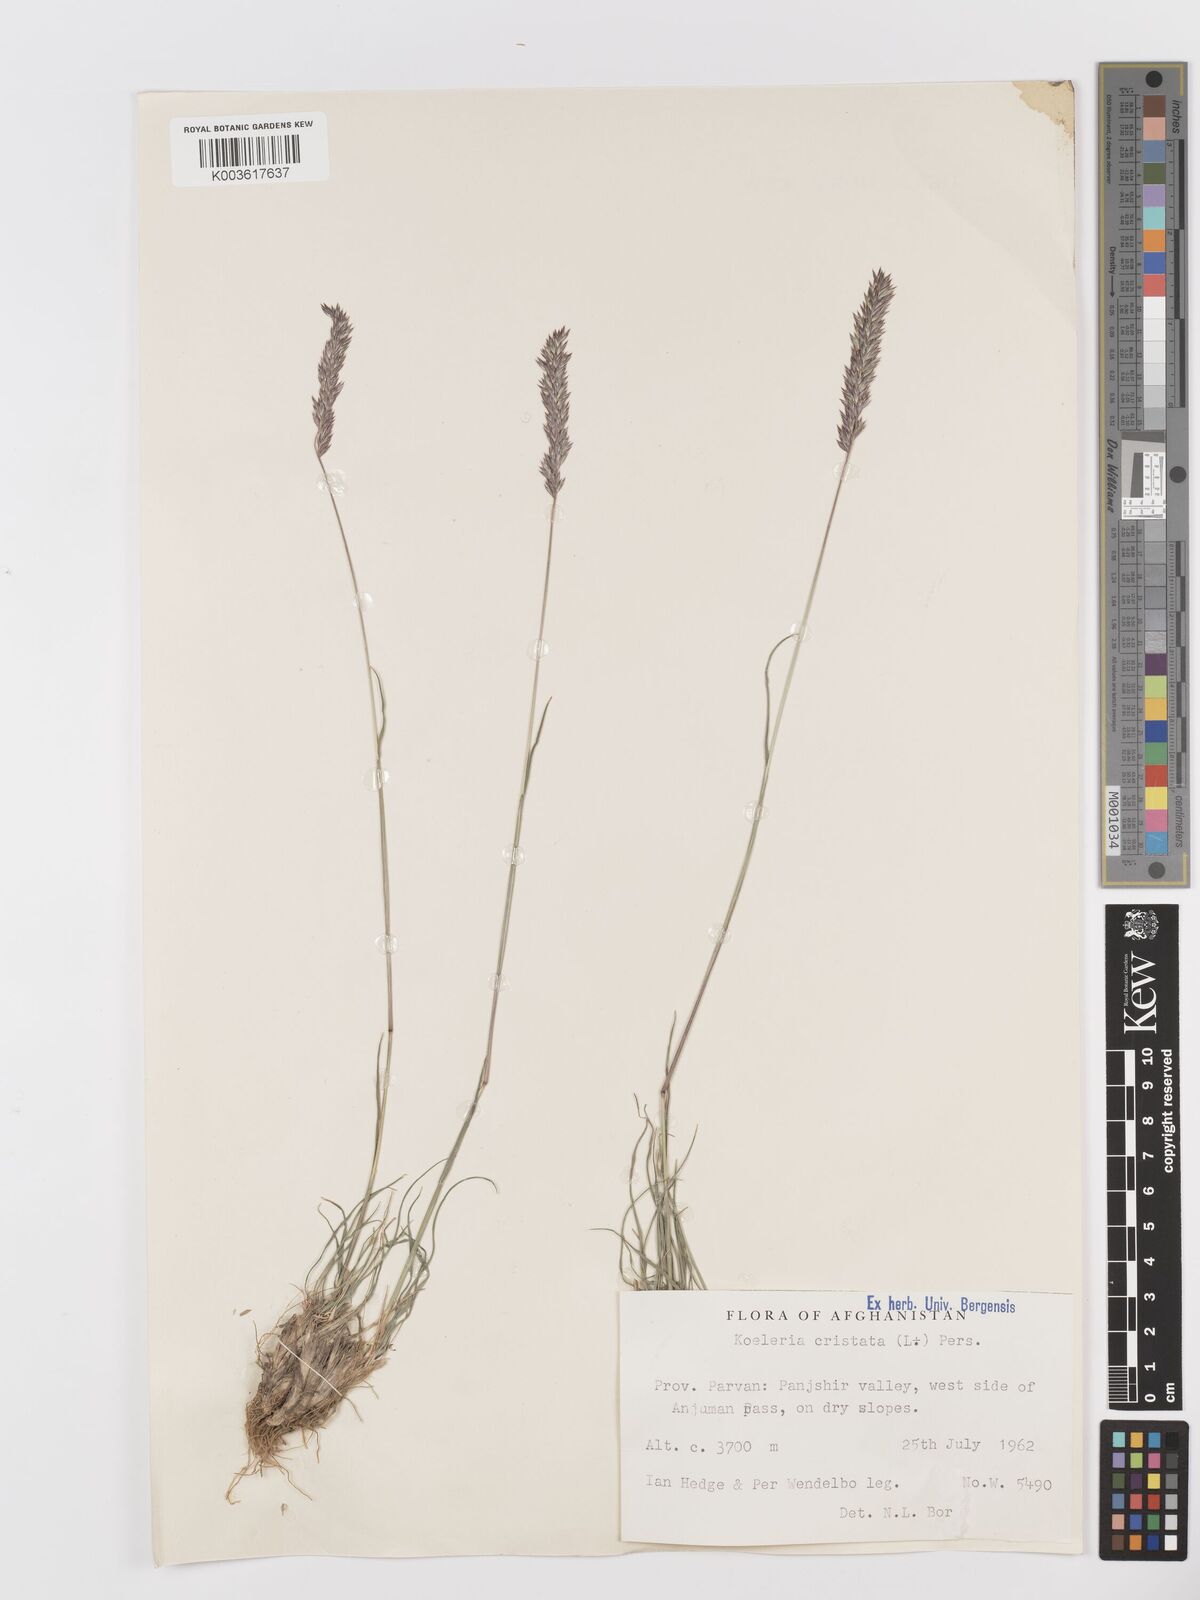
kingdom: Plantae
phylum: Tracheophyta
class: Liliopsida
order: Poales
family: Poaceae
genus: Koeleria
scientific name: Koeleria macrantha
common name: Crested hair-grass
